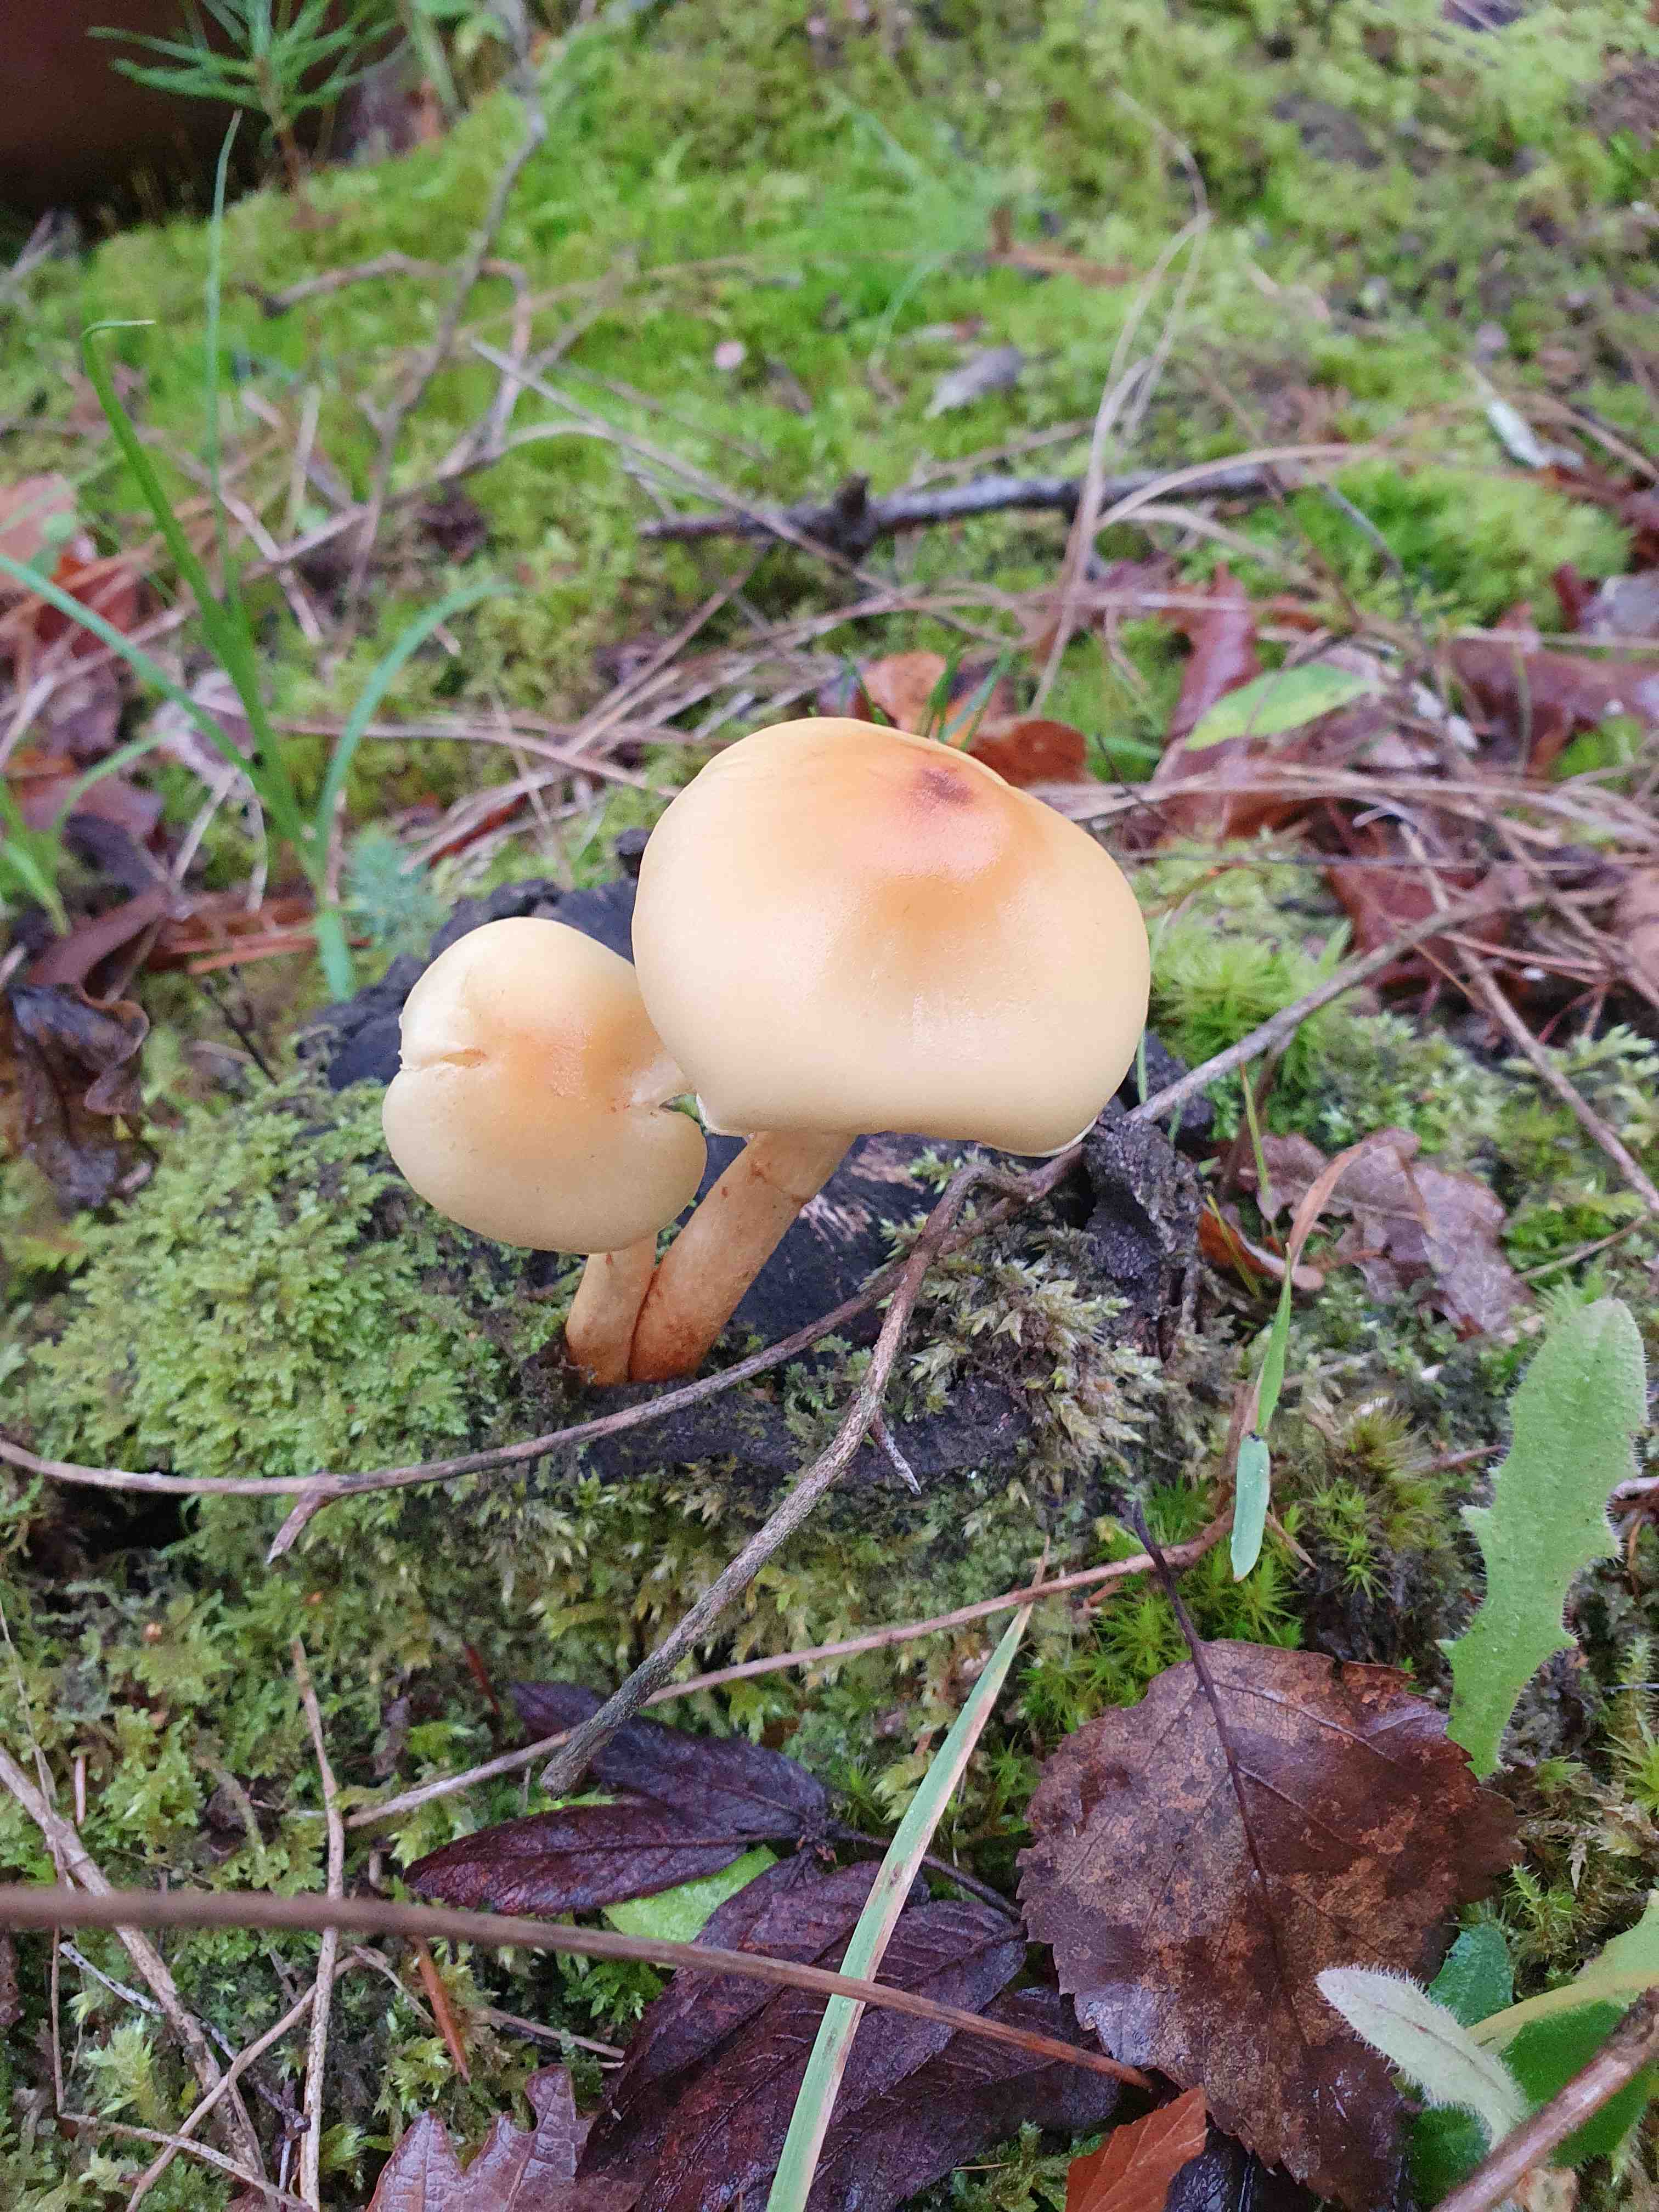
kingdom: Fungi
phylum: Basidiomycota
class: Agaricomycetes
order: Agaricales
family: Strophariaceae
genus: Hypholoma
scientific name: Hypholoma
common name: svovlhat
